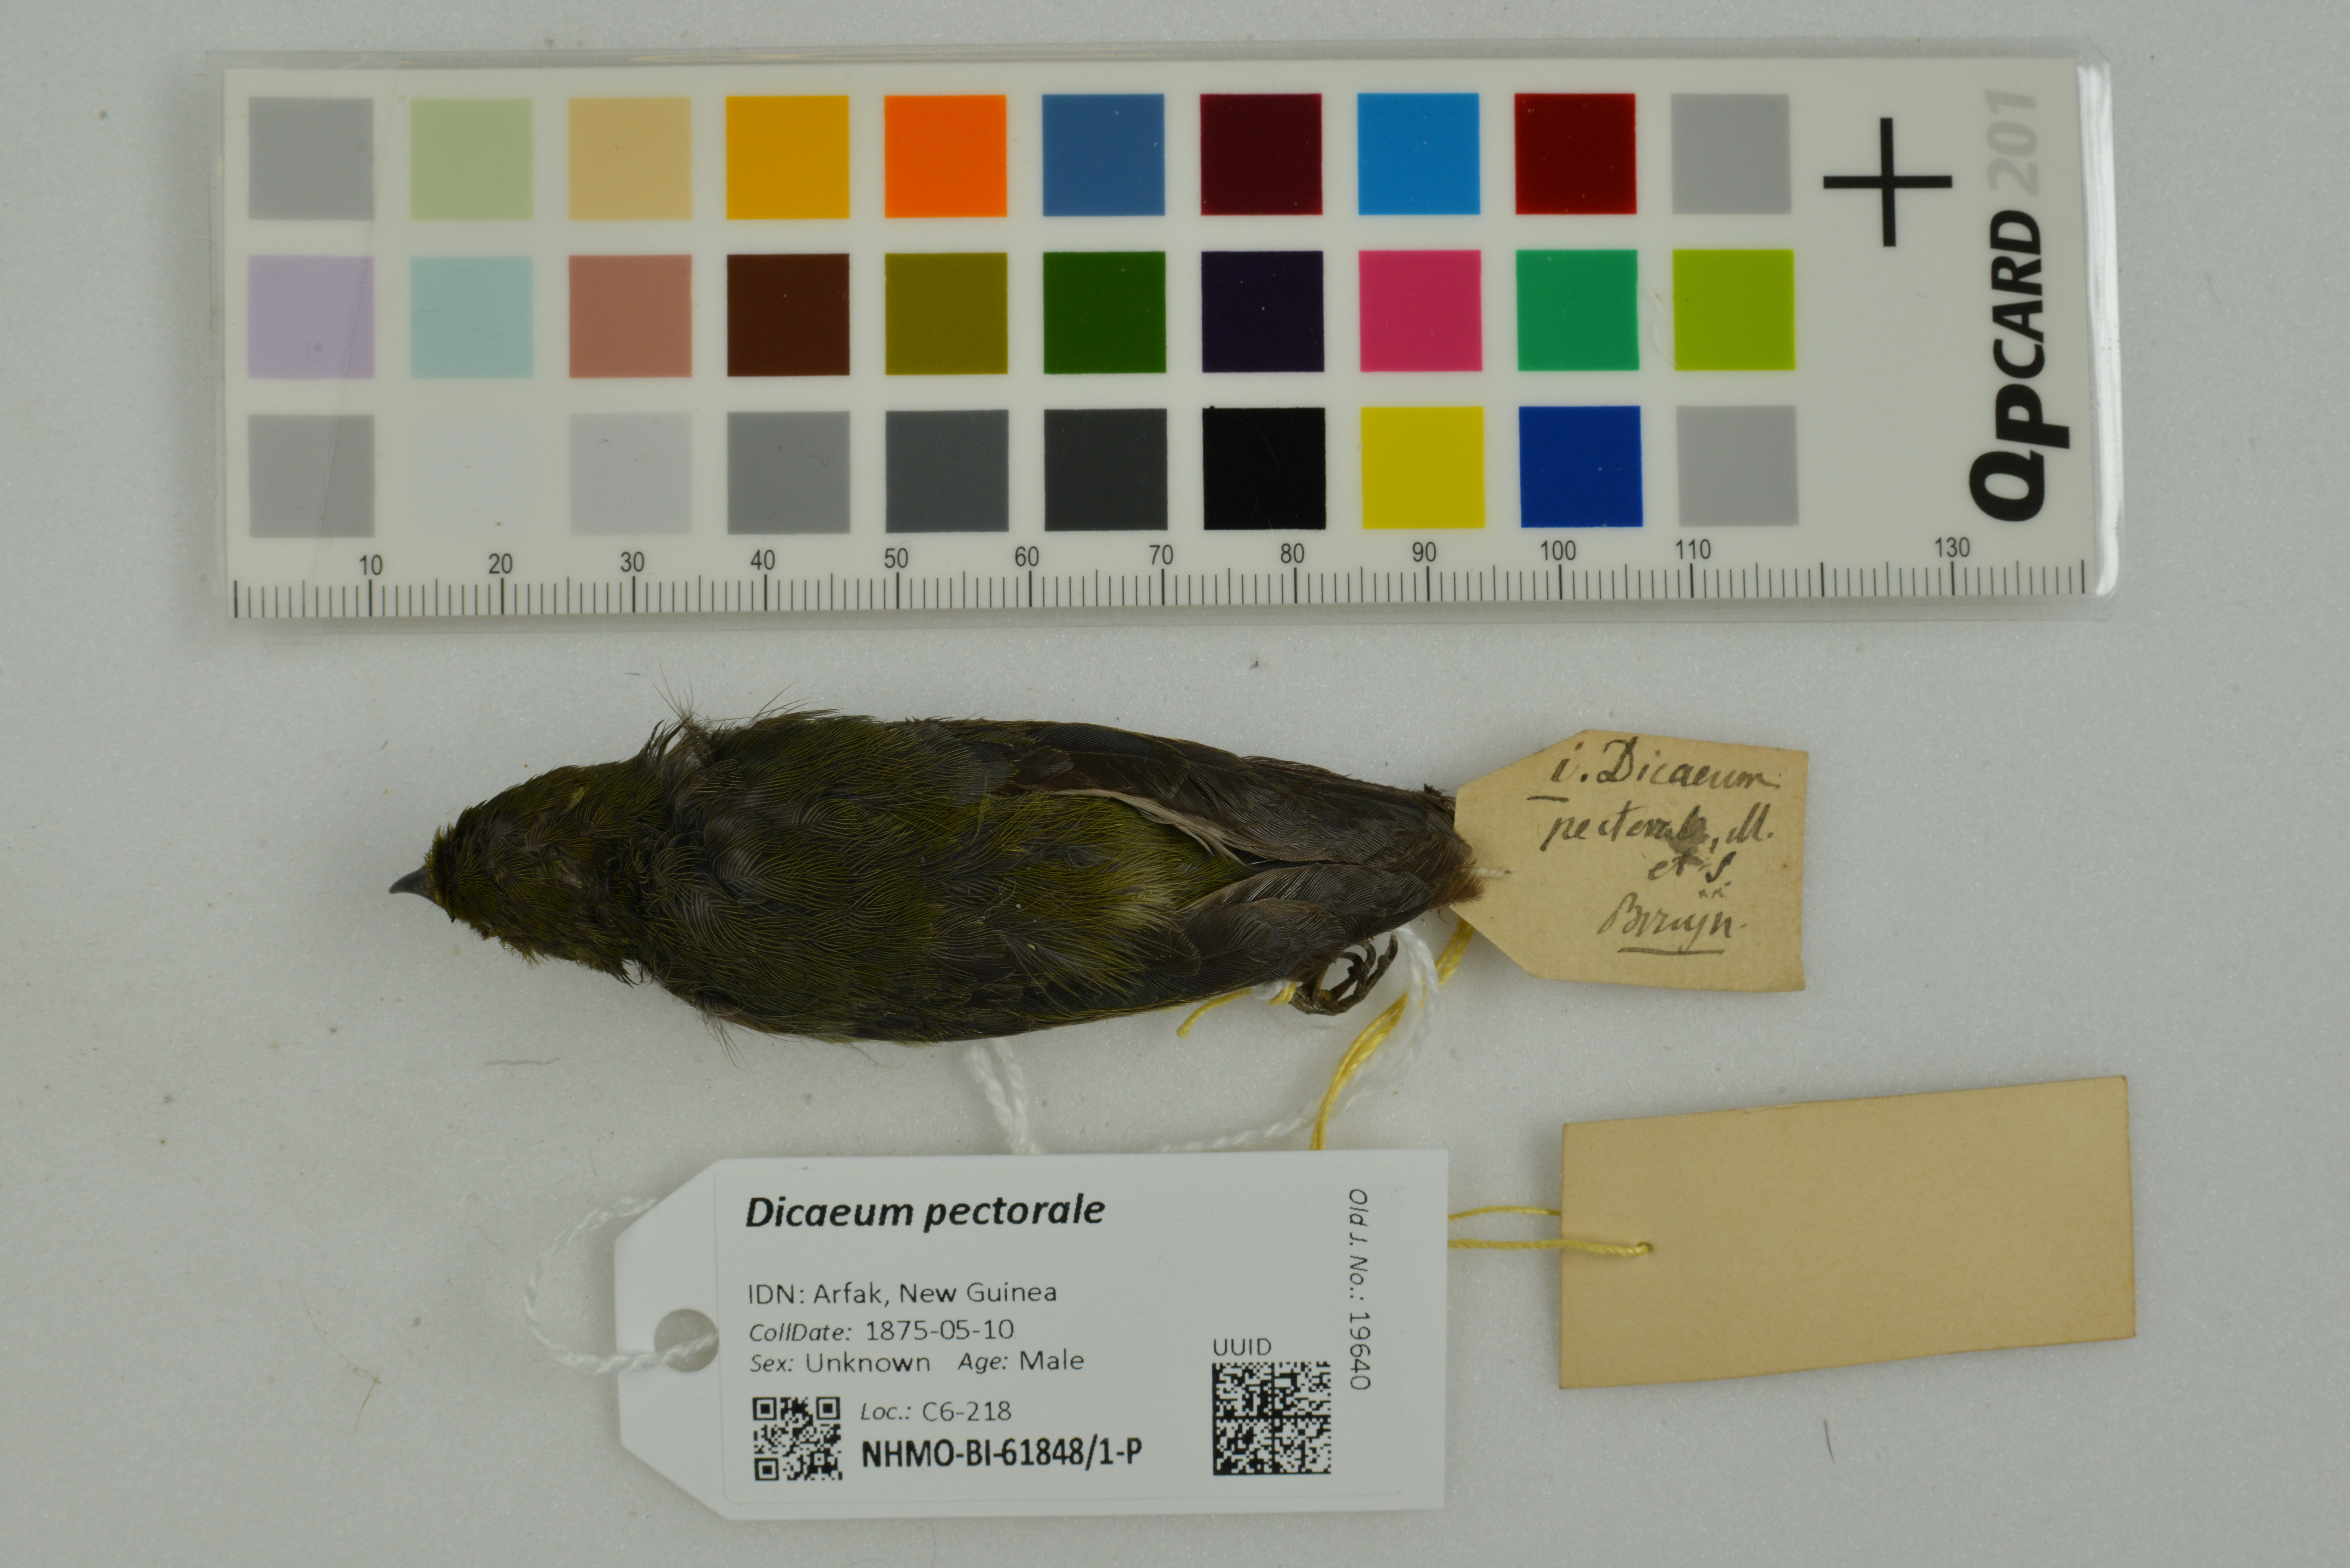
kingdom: Animalia
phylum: Chordata
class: Aves
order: Passeriformes
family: Dicaeidae
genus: Dicaeum
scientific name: Dicaeum pectorale
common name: Olive-crowned flowerpecker
